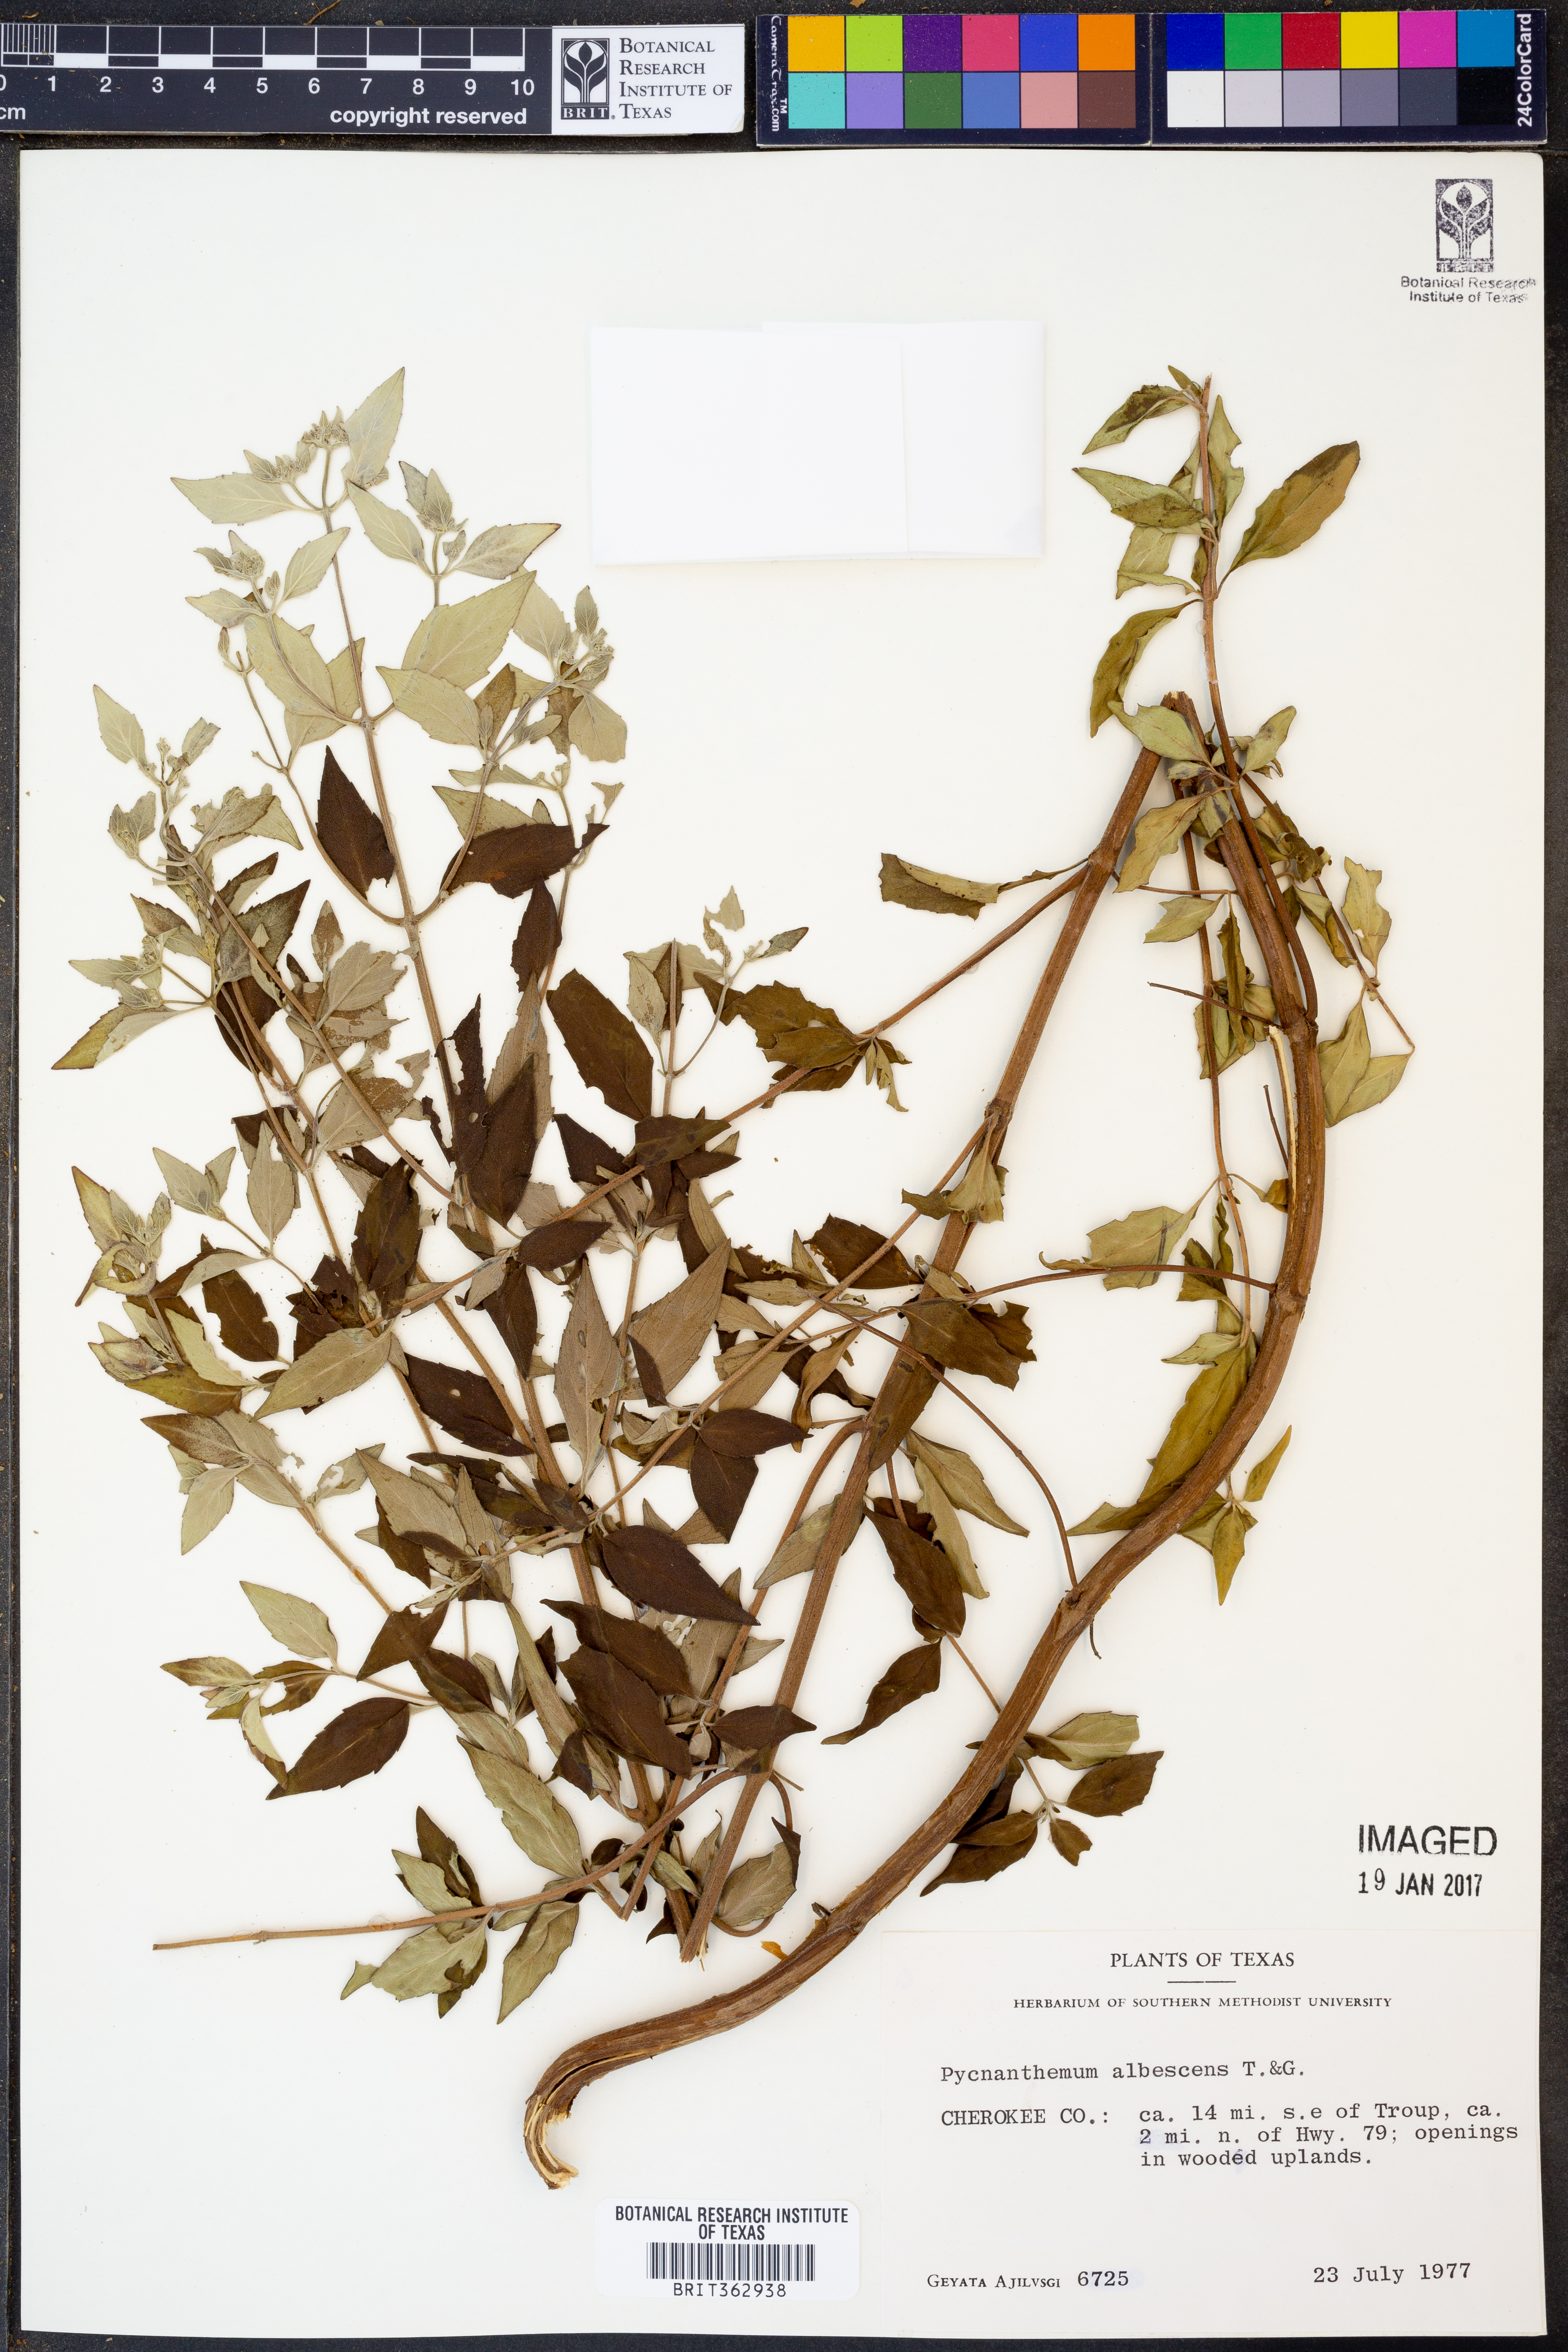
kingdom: Plantae
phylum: Tracheophyta
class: Magnoliopsida
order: Lamiales
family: Lamiaceae
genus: Pycnanthemum
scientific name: Pycnanthemum albescens
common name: White-leaf mountain-mint
